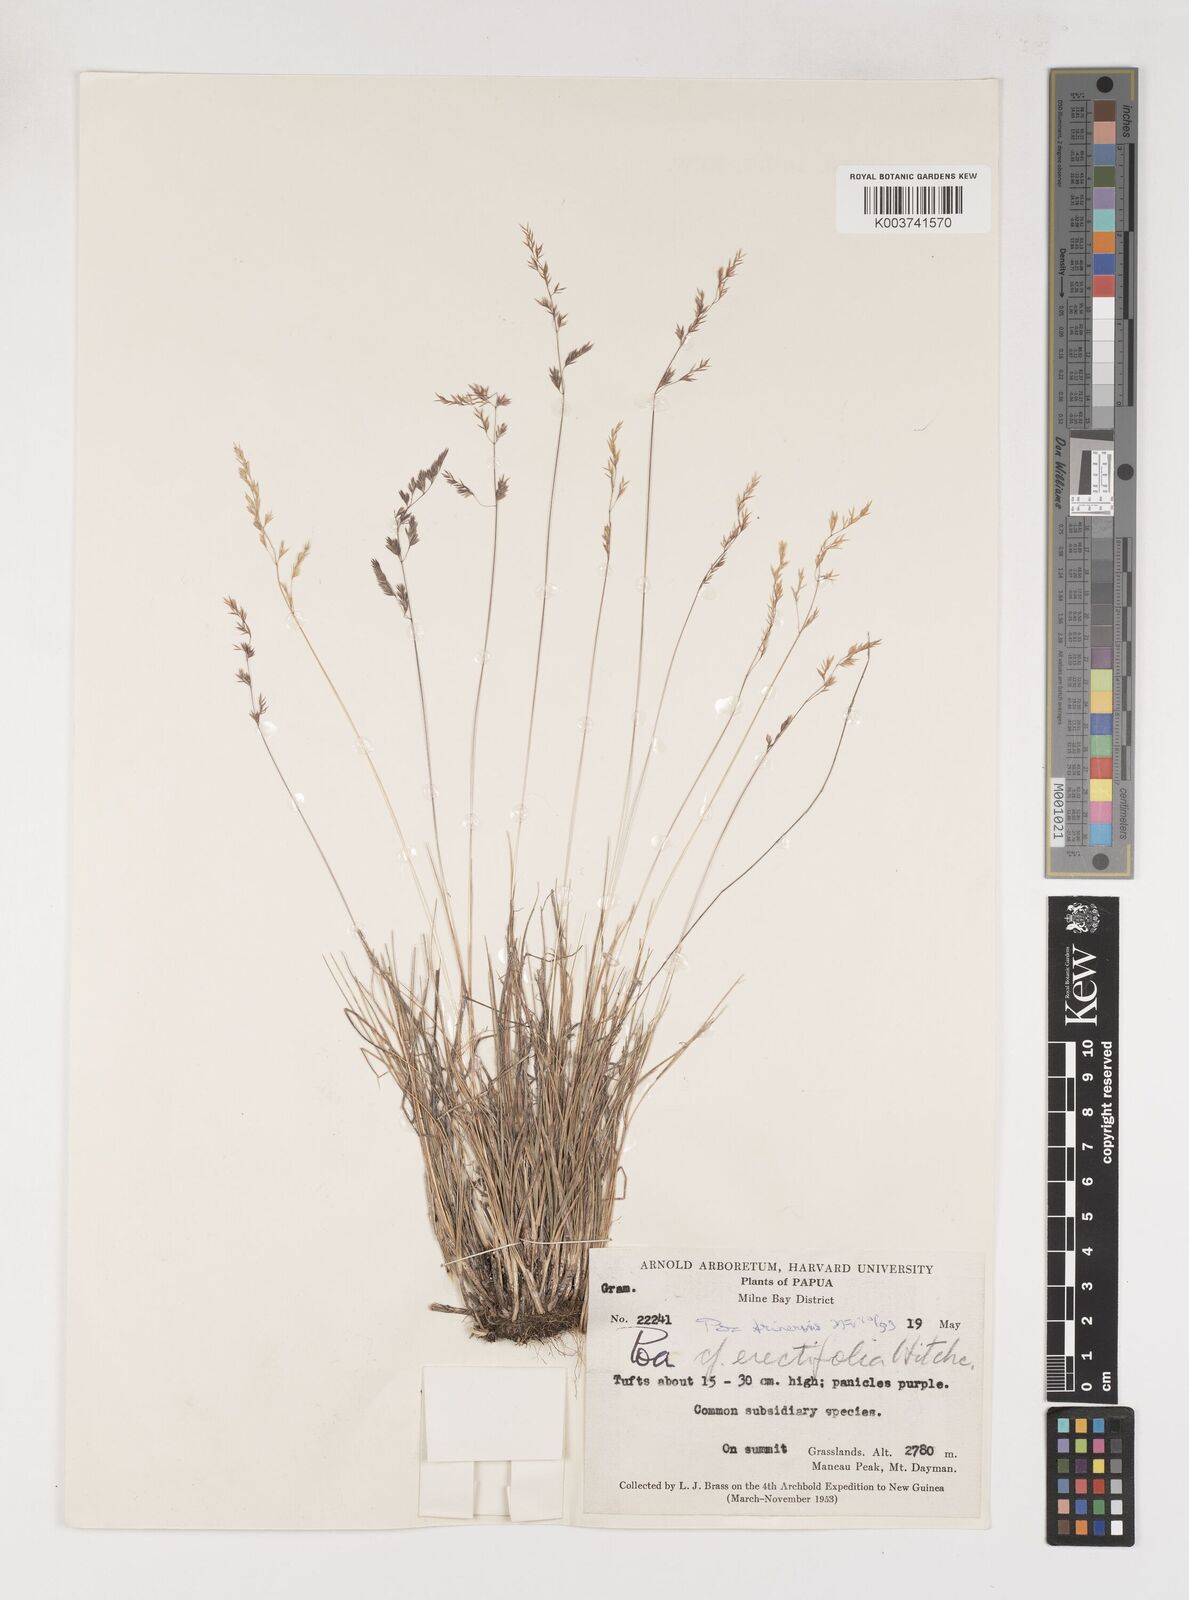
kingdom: Plantae
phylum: Tracheophyta
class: Liliopsida
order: Poales
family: Poaceae
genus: Poa
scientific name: Poa trinervis
